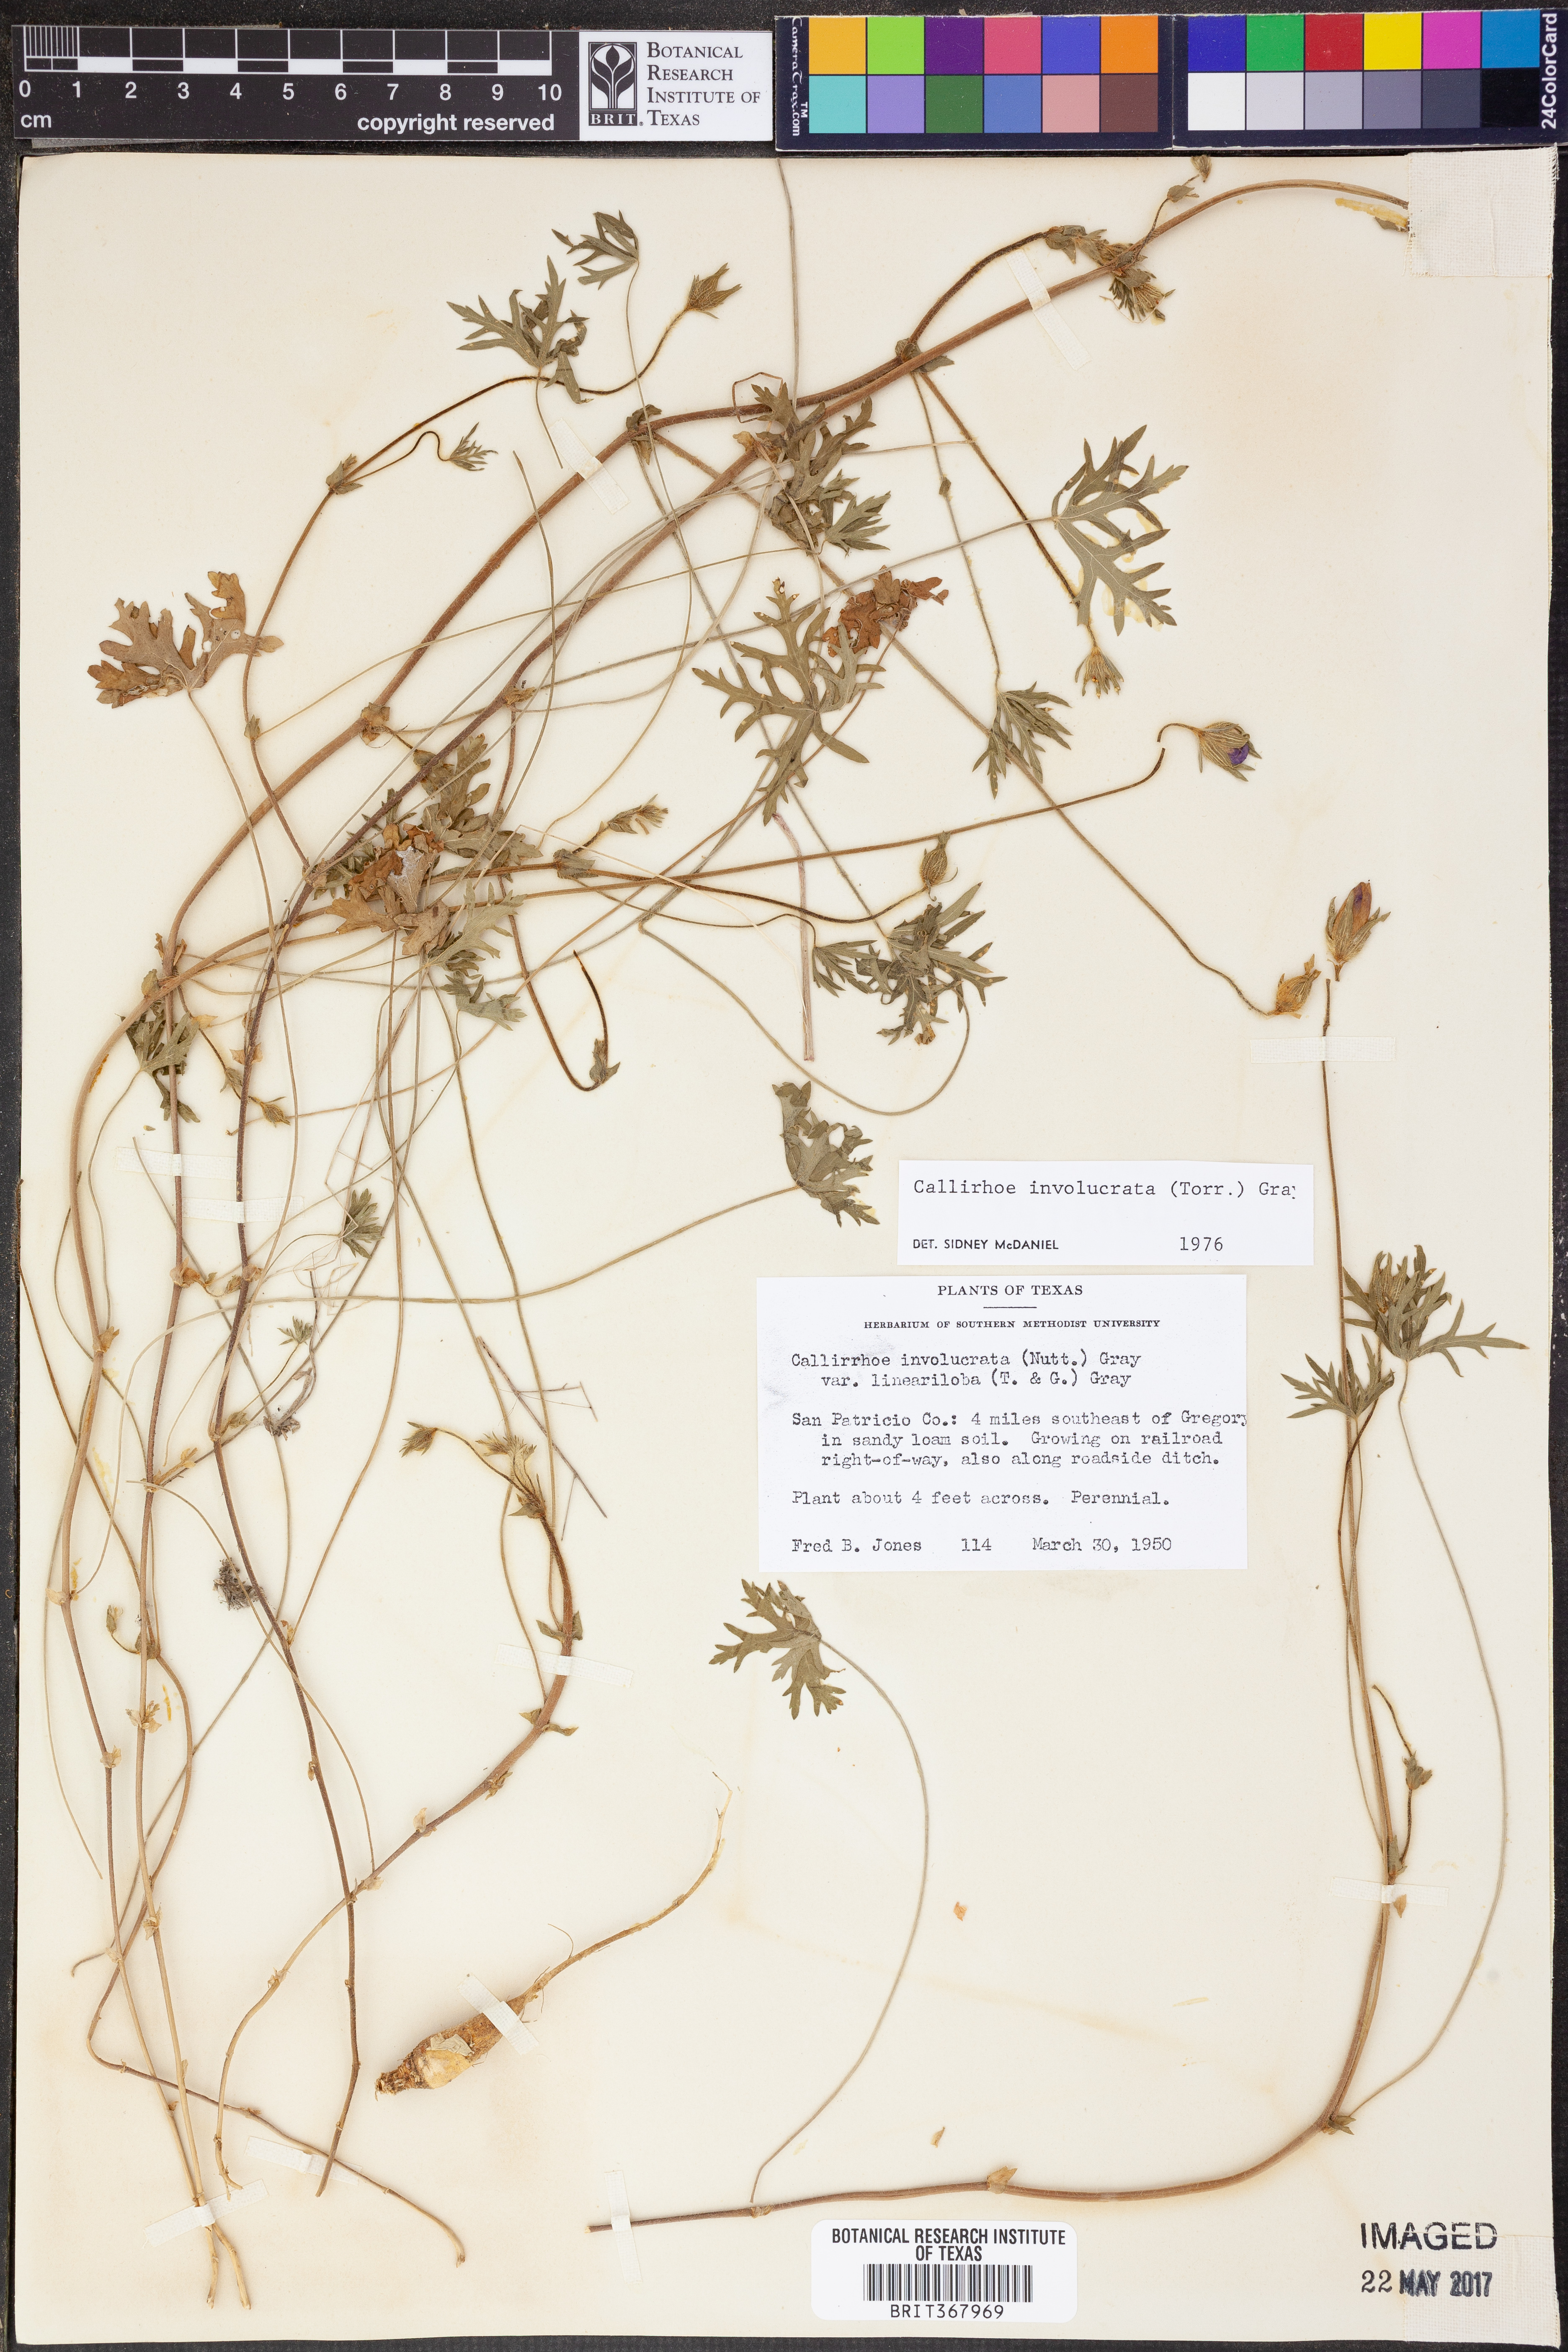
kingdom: Plantae
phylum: Tracheophyta
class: Magnoliopsida
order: Malvales
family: Malvaceae
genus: Callirhoe
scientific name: Callirhoe involucrata
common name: Purple poppy-mallow
